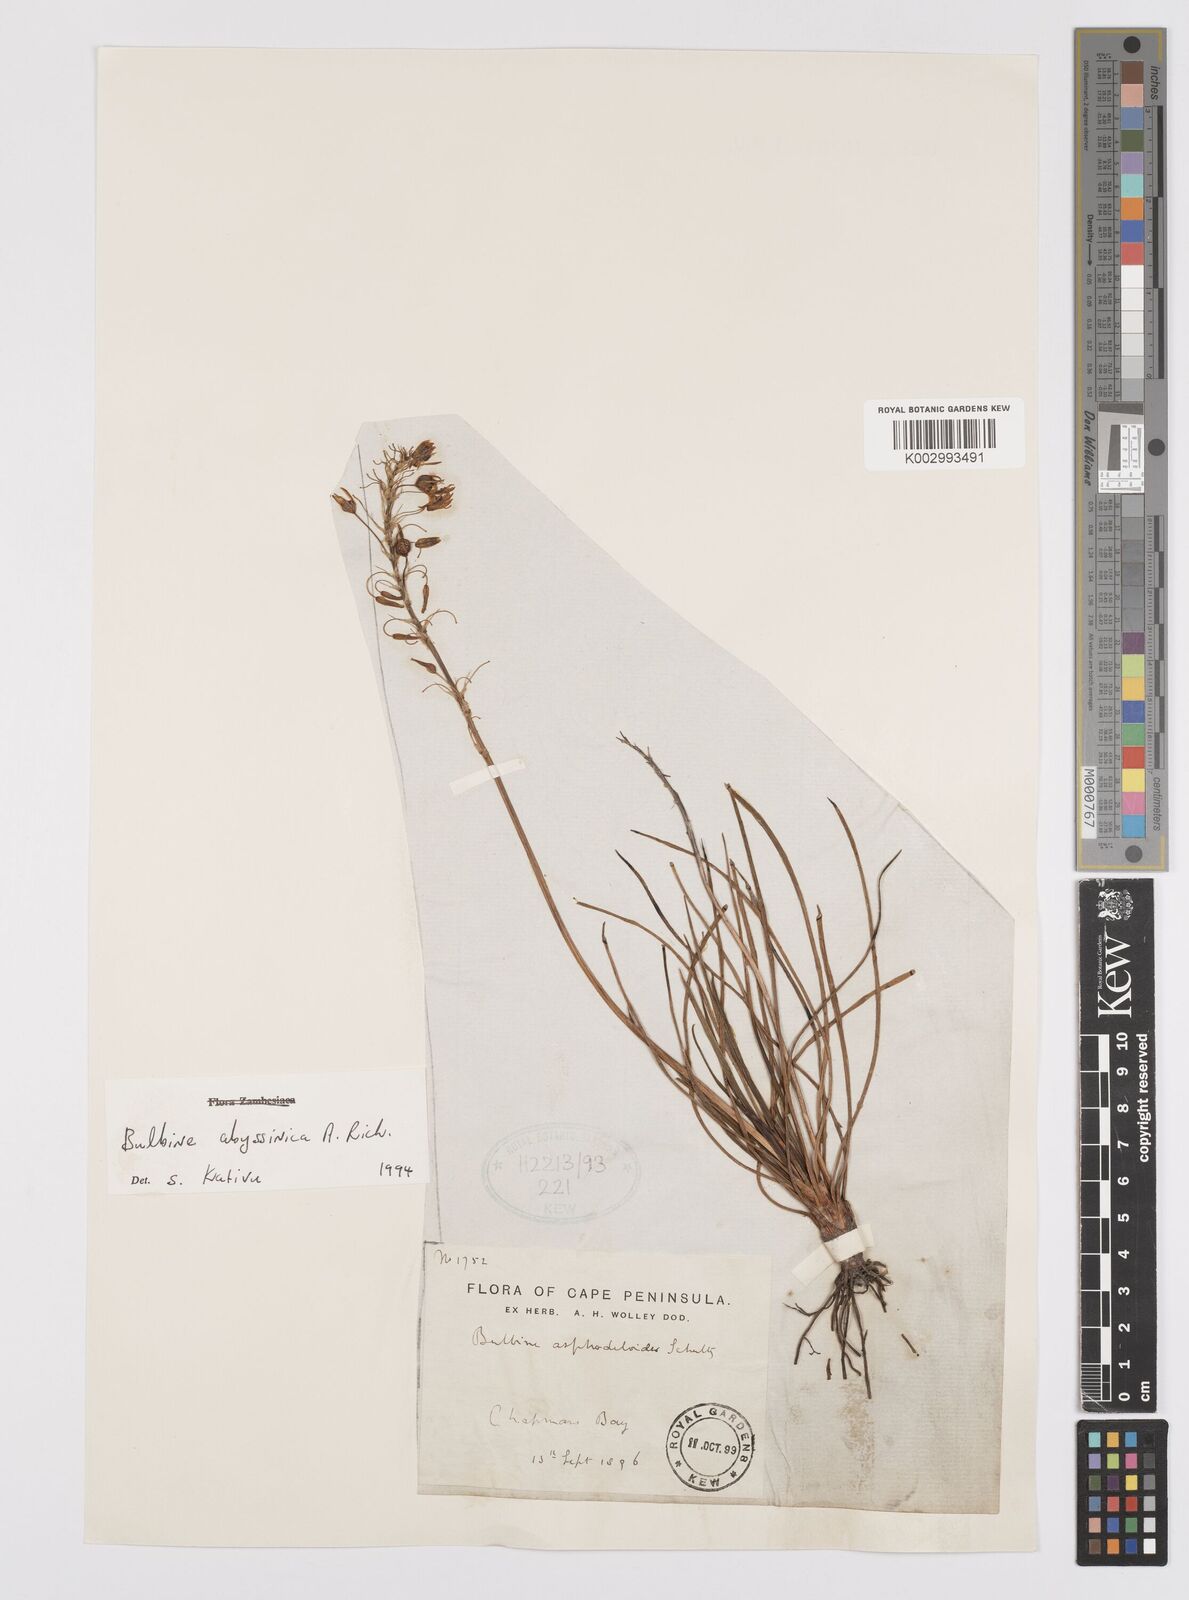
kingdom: Plantae
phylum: Tracheophyta
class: Liliopsida
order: Asparagales
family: Asphodelaceae
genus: Bulbine
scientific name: Bulbine abyssinica
